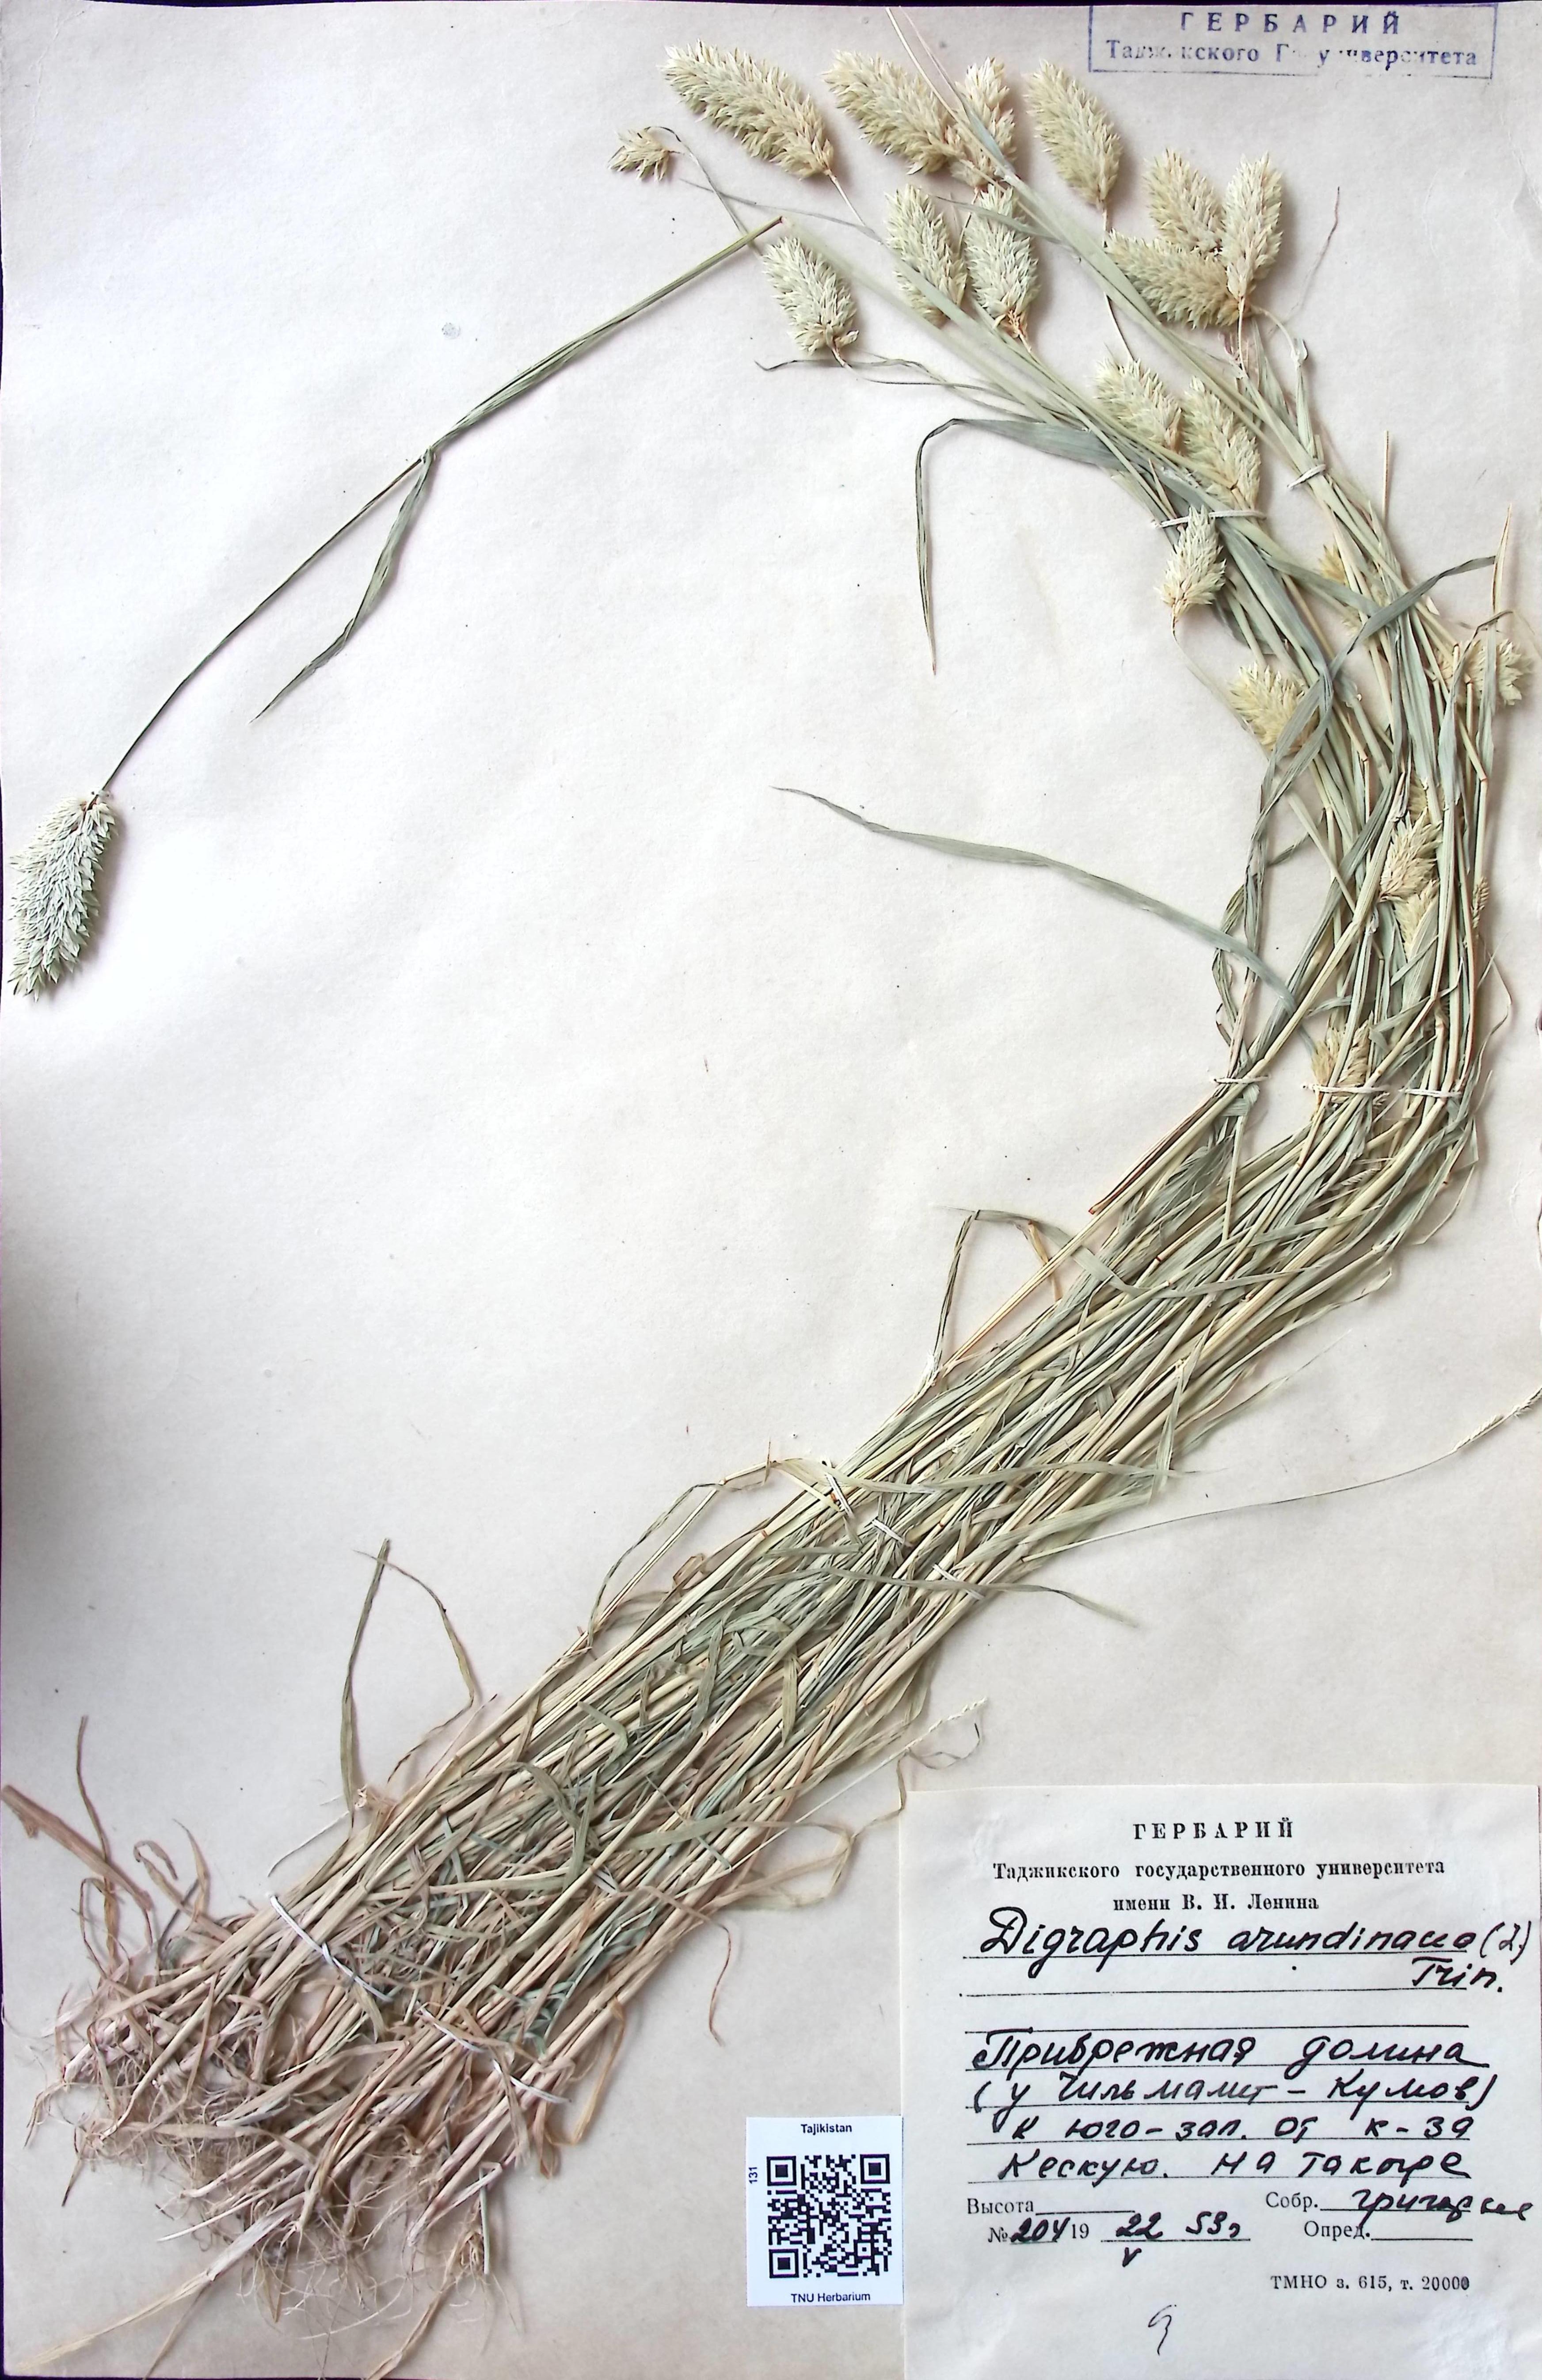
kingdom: Plantae
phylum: Tracheophyta
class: Liliopsida
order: Poales
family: Poaceae
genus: Phalaris
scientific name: Phalaris arundinacea
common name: Reed canary-grass
